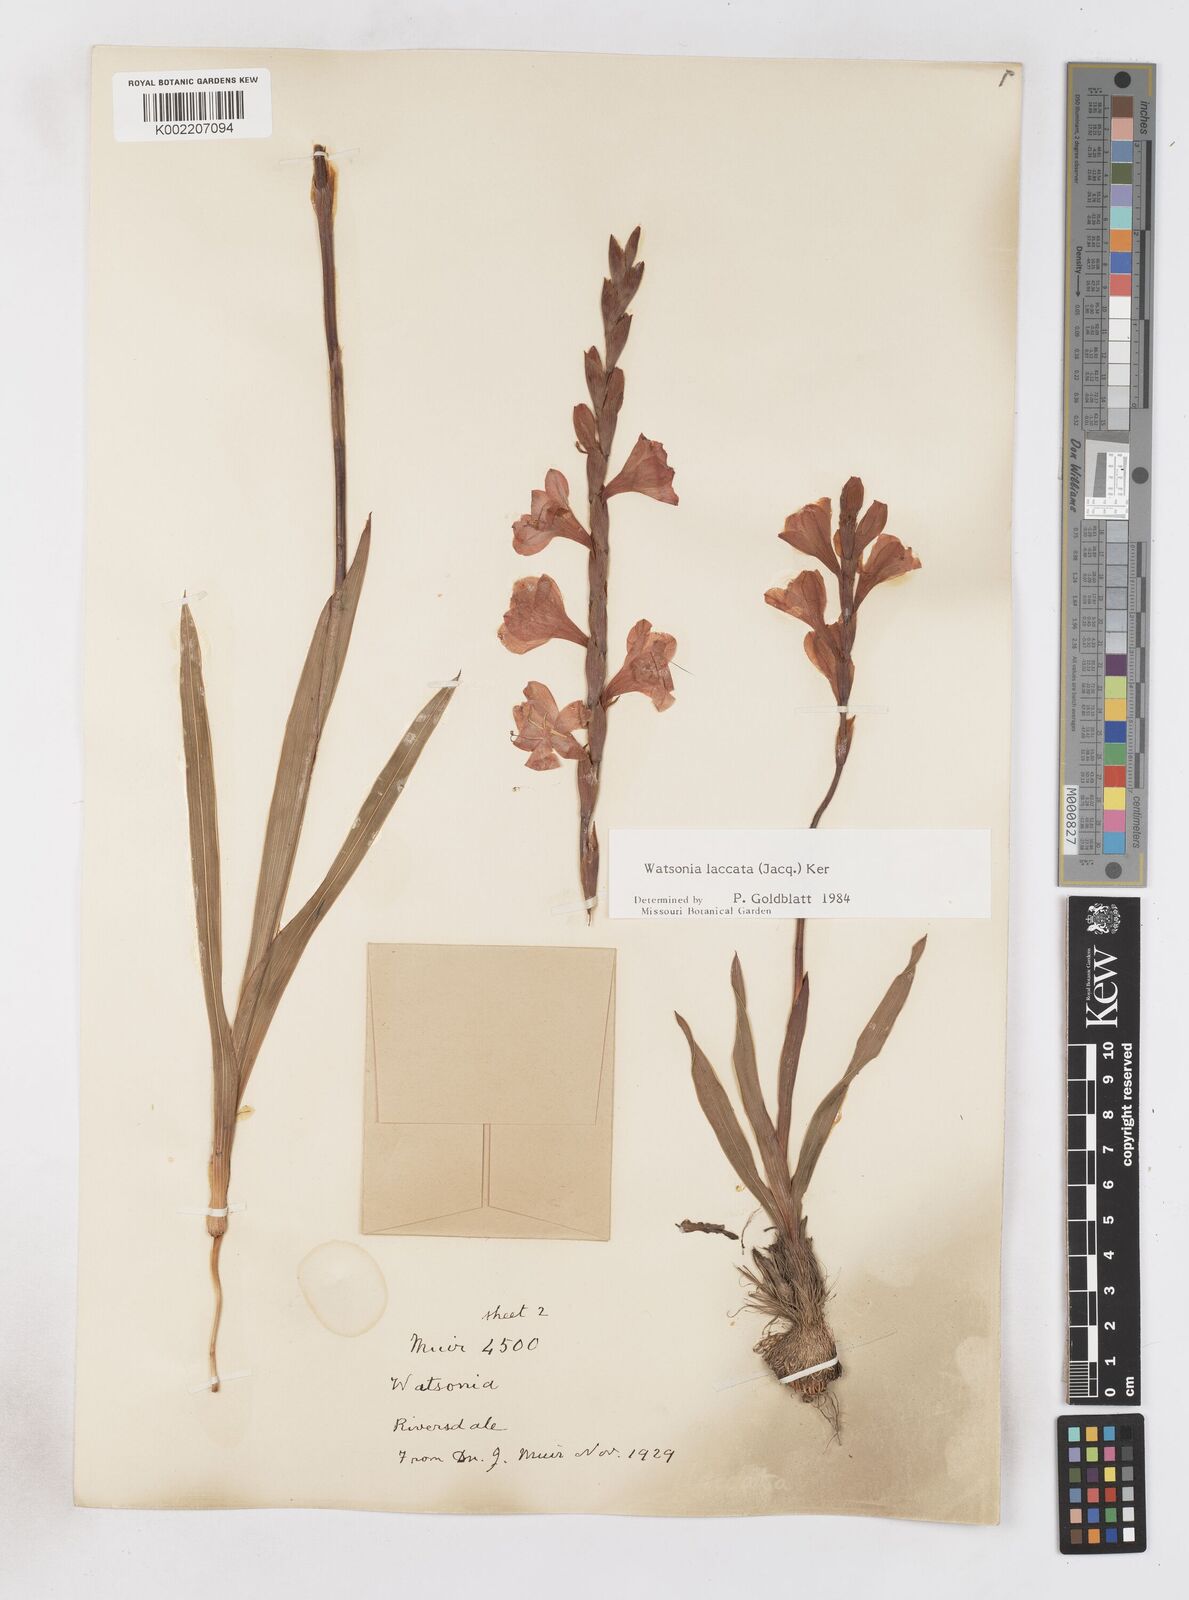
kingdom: Plantae
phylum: Tracheophyta
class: Liliopsida
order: Asparagales
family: Iridaceae
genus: Watsonia
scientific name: Watsonia laccata
